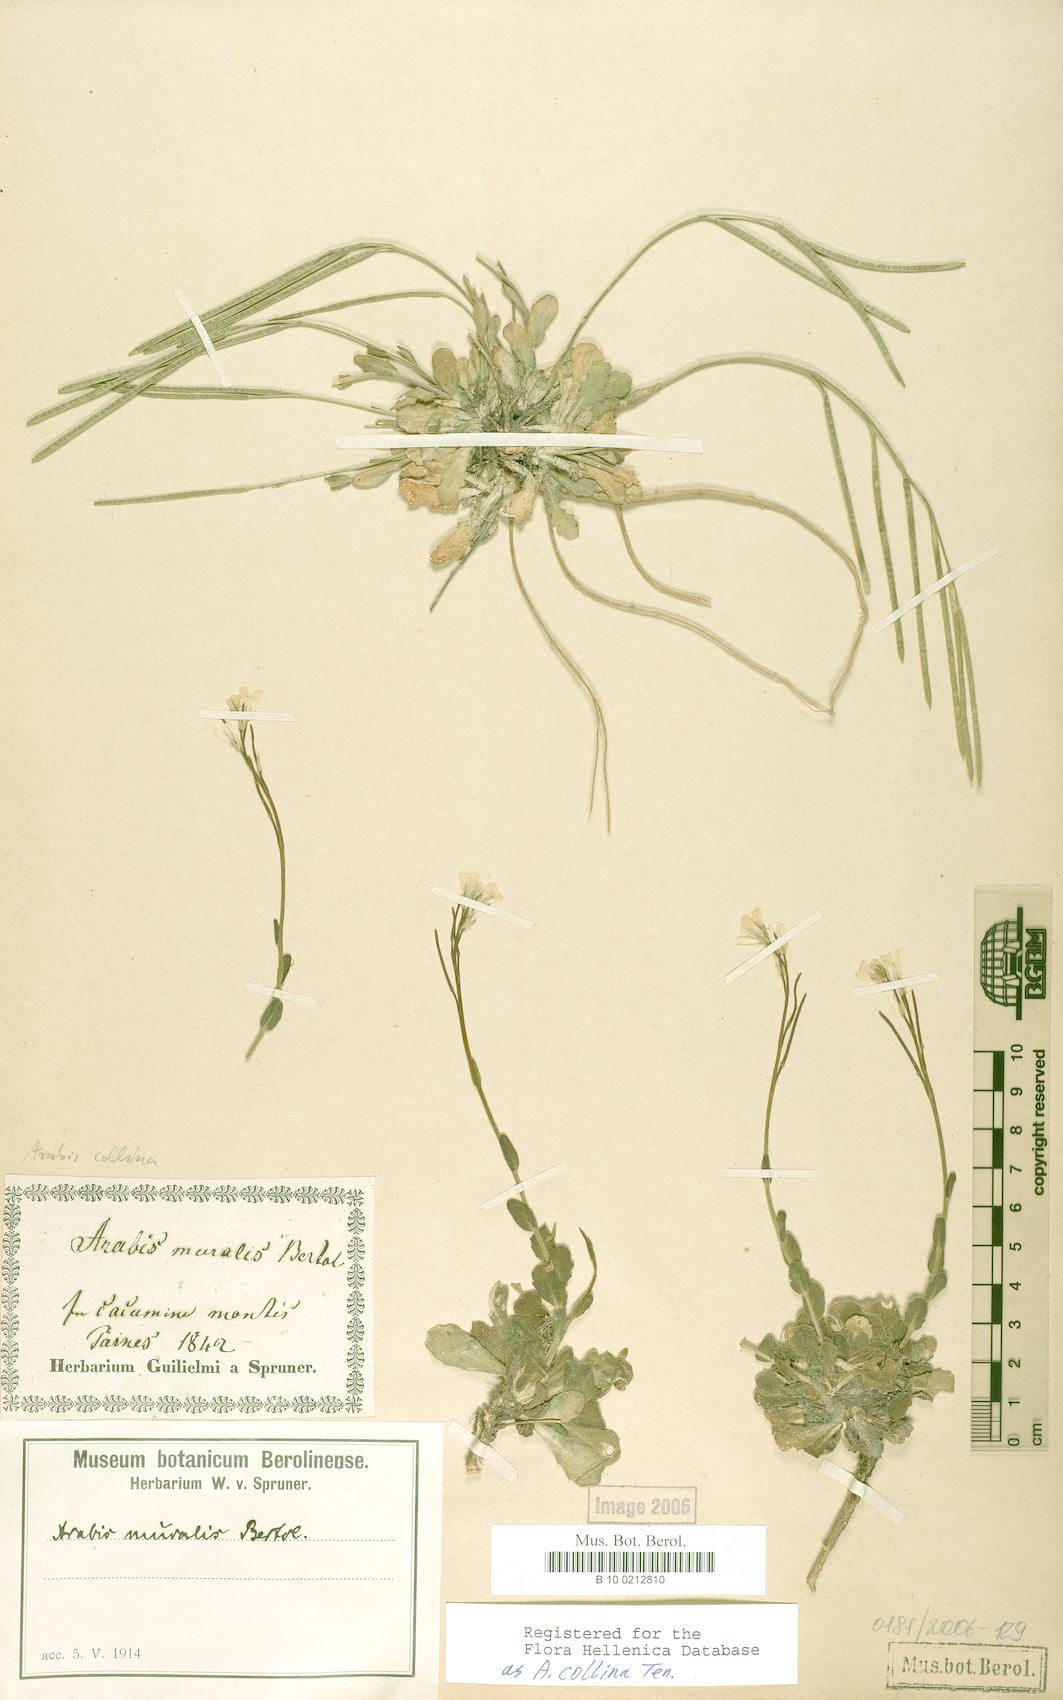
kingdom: Plantae
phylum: Tracheophyta
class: Magnoliopsida
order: Brassicales
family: Brassicaceae
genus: Arabis
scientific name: Arabis collina
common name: Rosy cress
